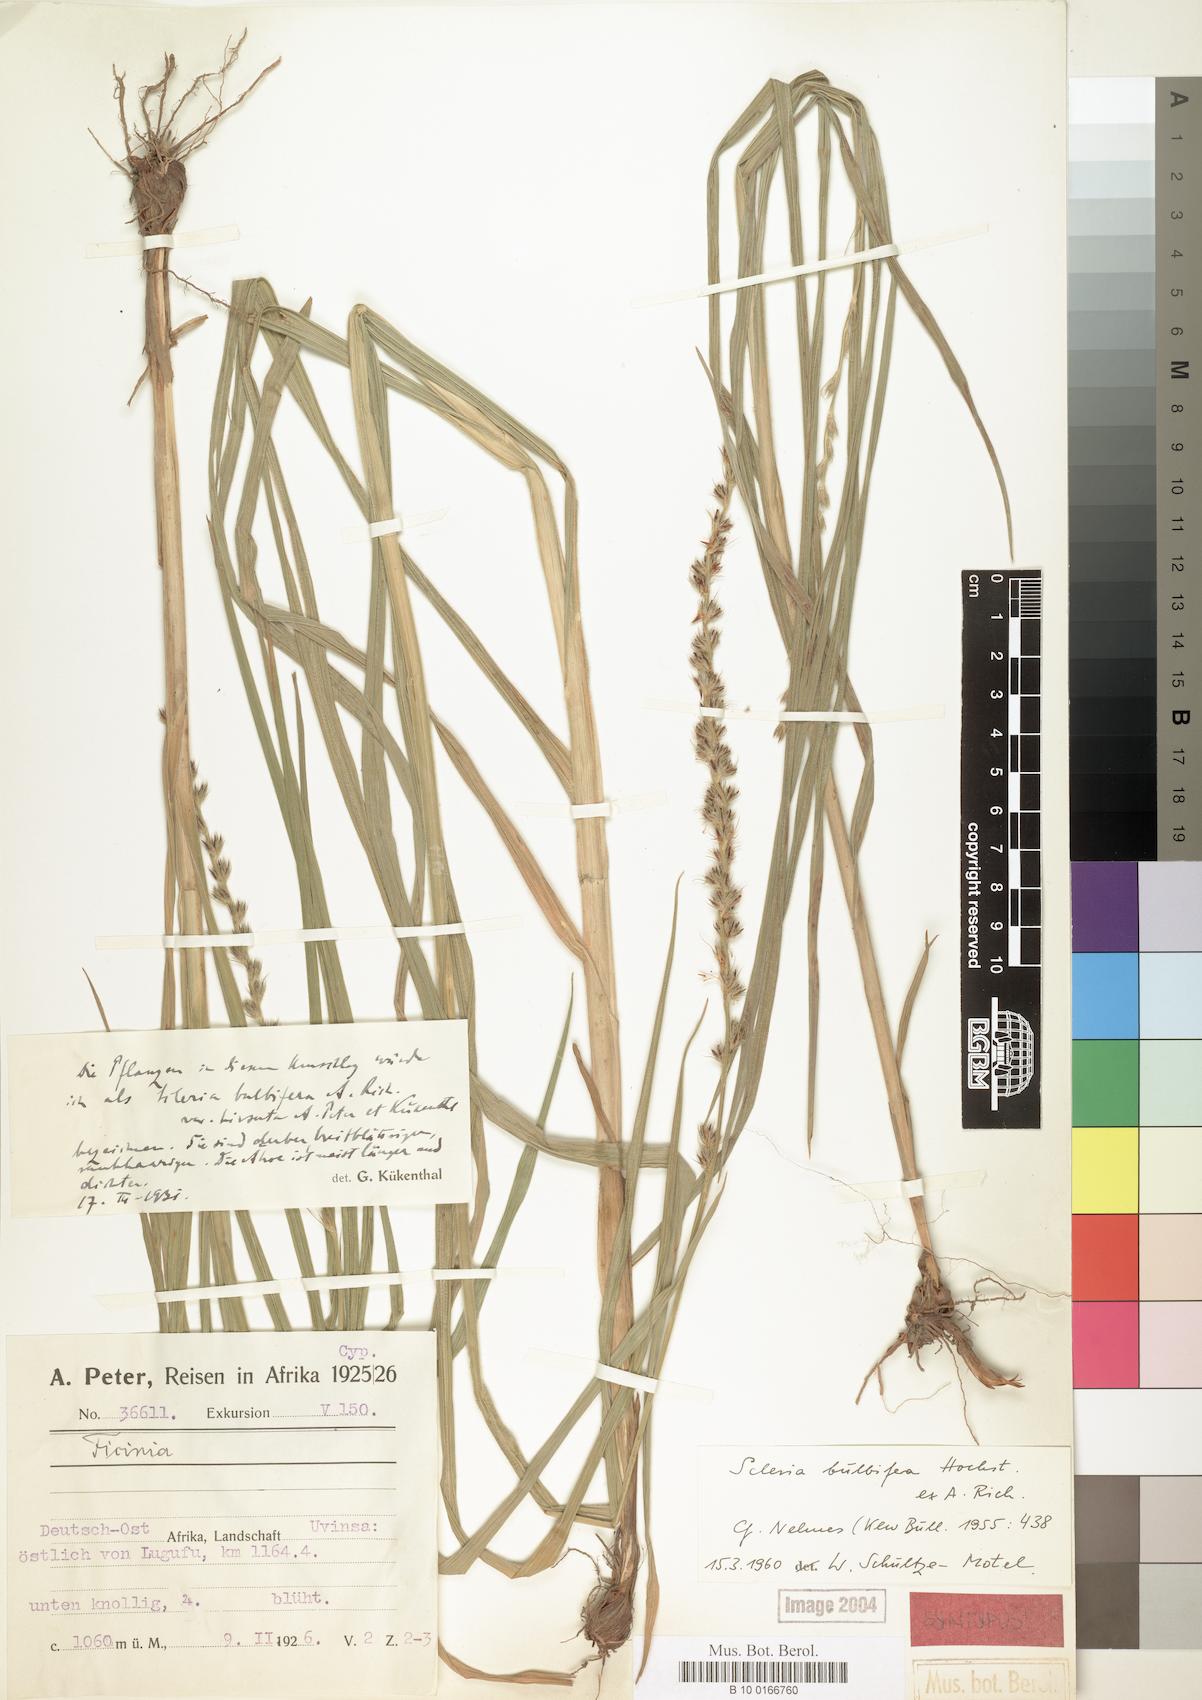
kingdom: Plantae
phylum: Tracheophyta
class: Liliopsida
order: Poales
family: Cyperaceae
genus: Scleria
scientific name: Scleria bulbifera
